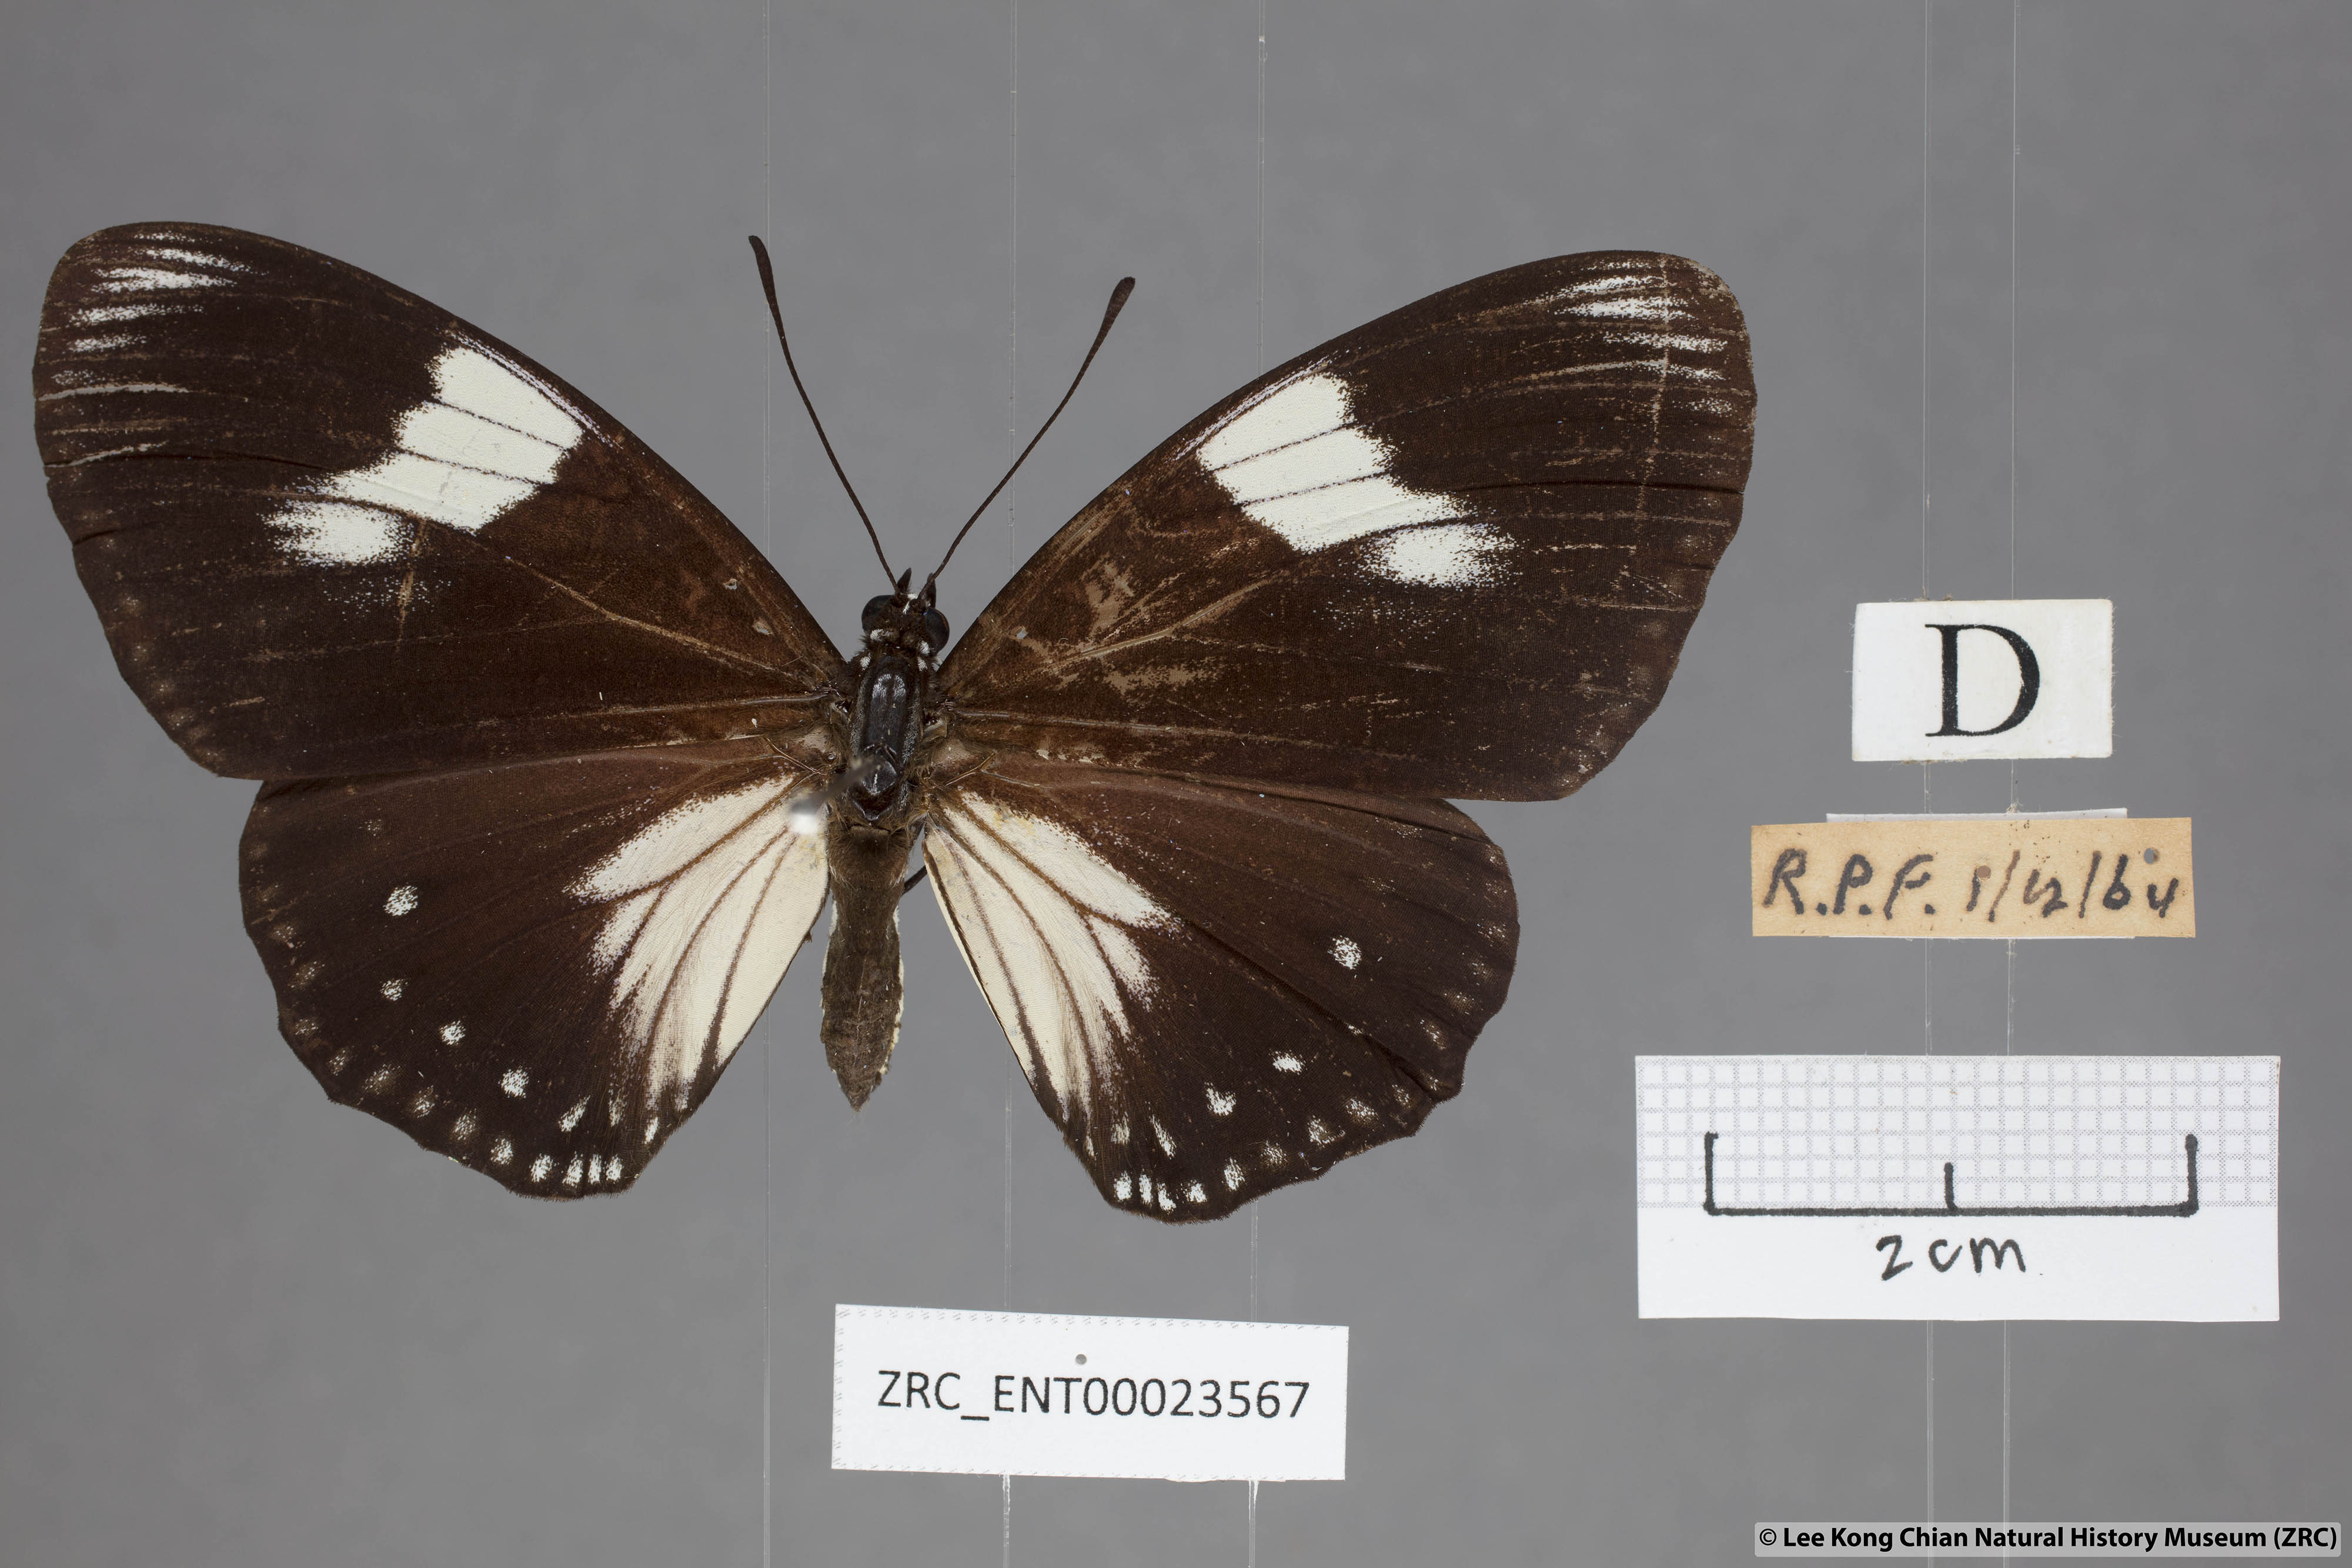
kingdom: Animalia
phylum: Arthropoda
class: Insecta
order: Lepidoptera
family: Nymphalidae
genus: Euripus
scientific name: Euripus nyctelius
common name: Courtesan
